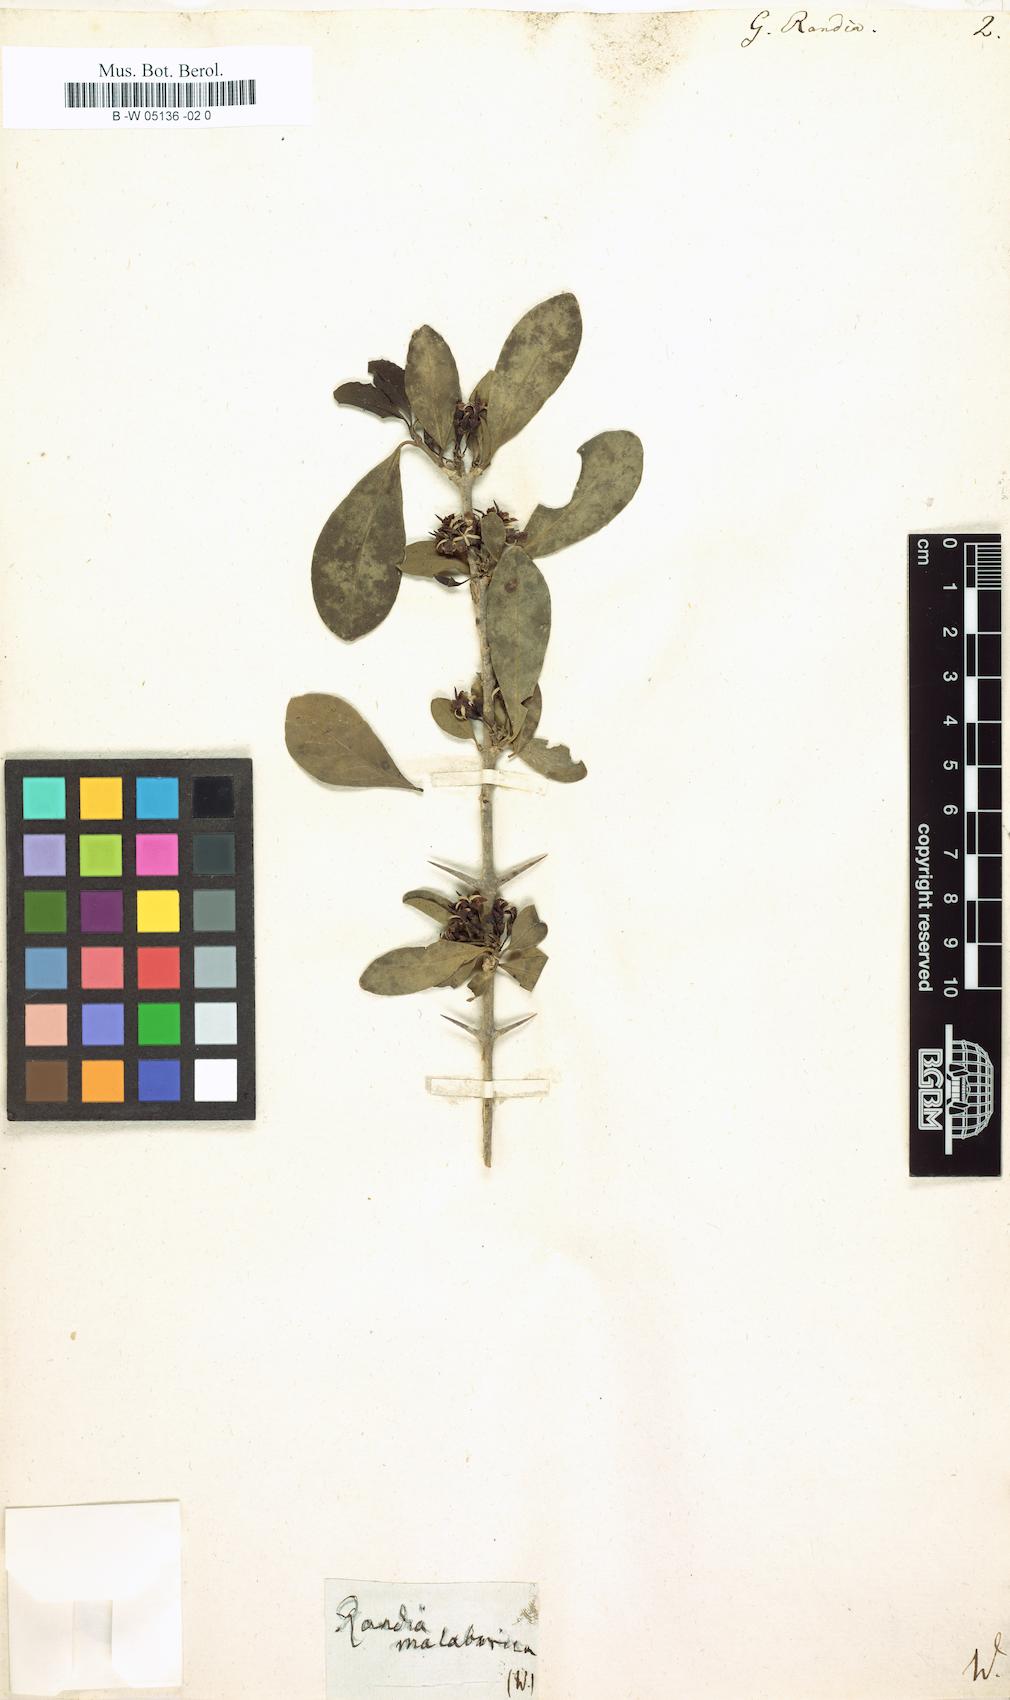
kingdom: Plantae
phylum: Tracheophyta
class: Magnoliopsida
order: Gentianales
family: Rubiaceae
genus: Randia
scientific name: Randia aculeata
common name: Inkberry
